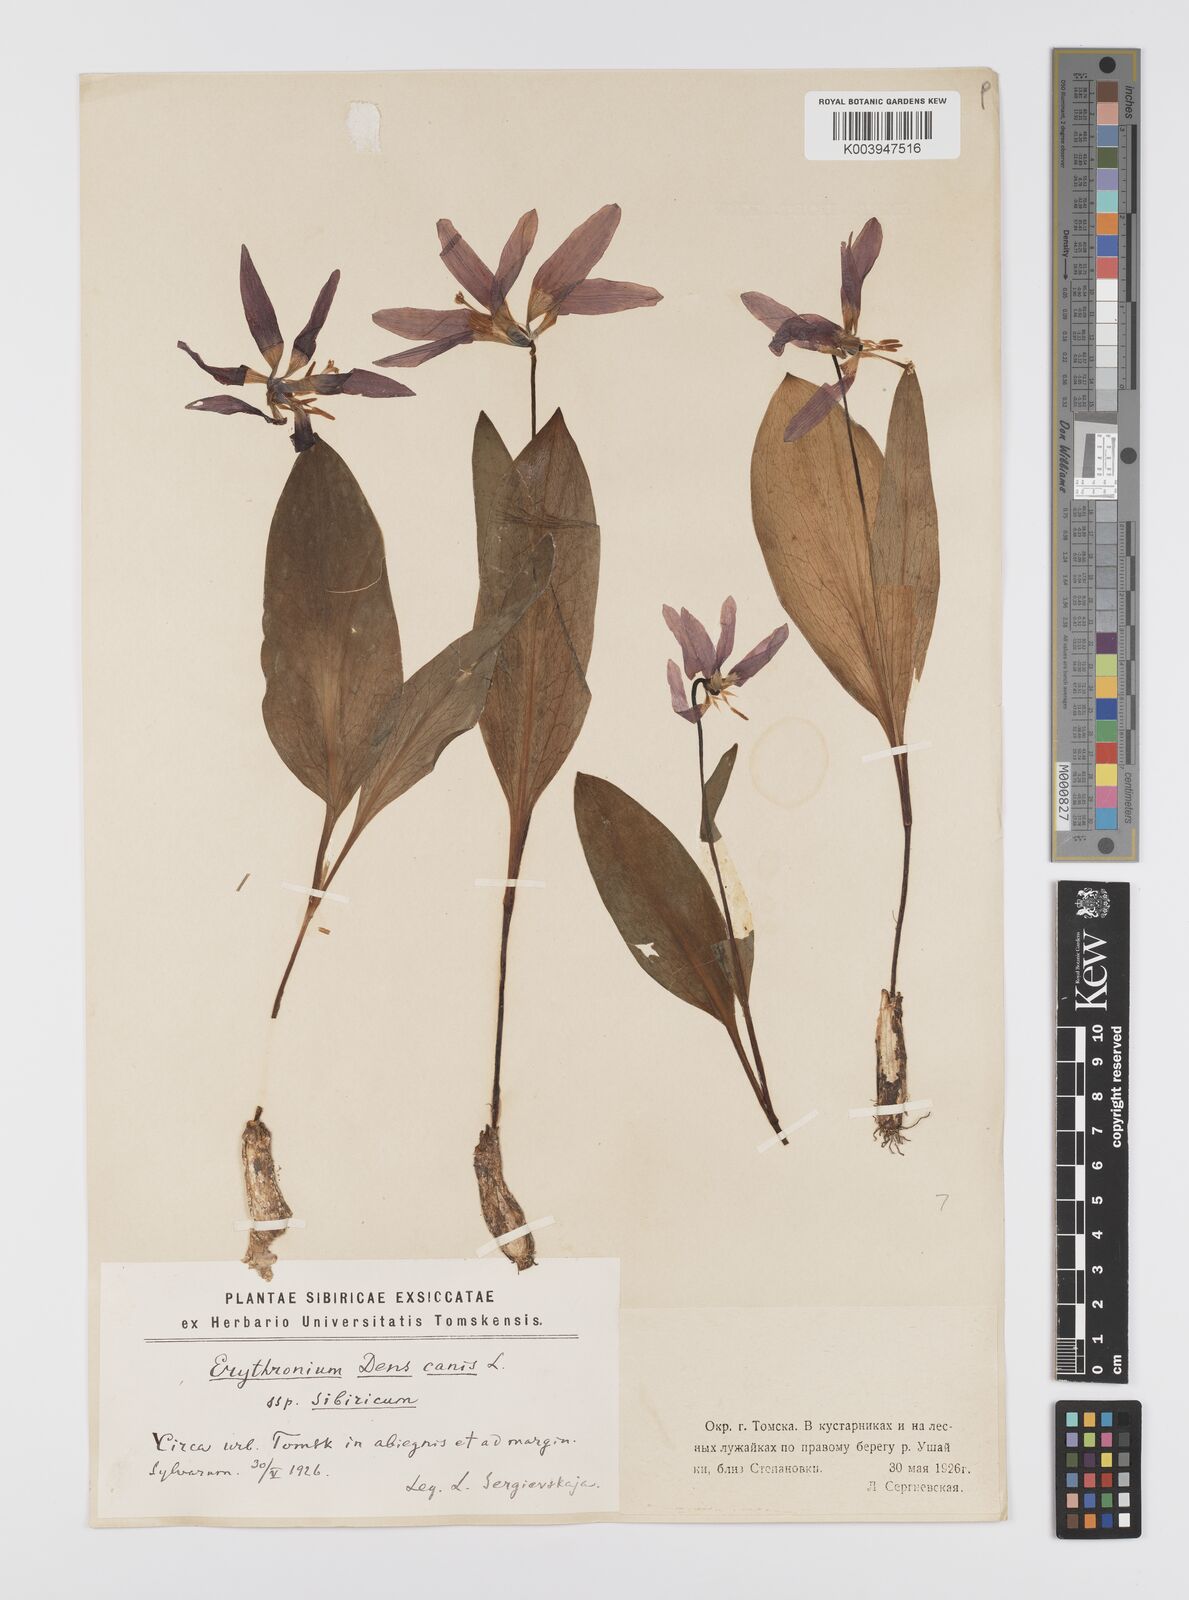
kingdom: Plantae
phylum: Tracheophyta
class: Liliopsida
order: Liliales
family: Liliaceae
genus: Erythronium
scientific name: Erythronium dens-canis
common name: Dog's-tooth-violet
